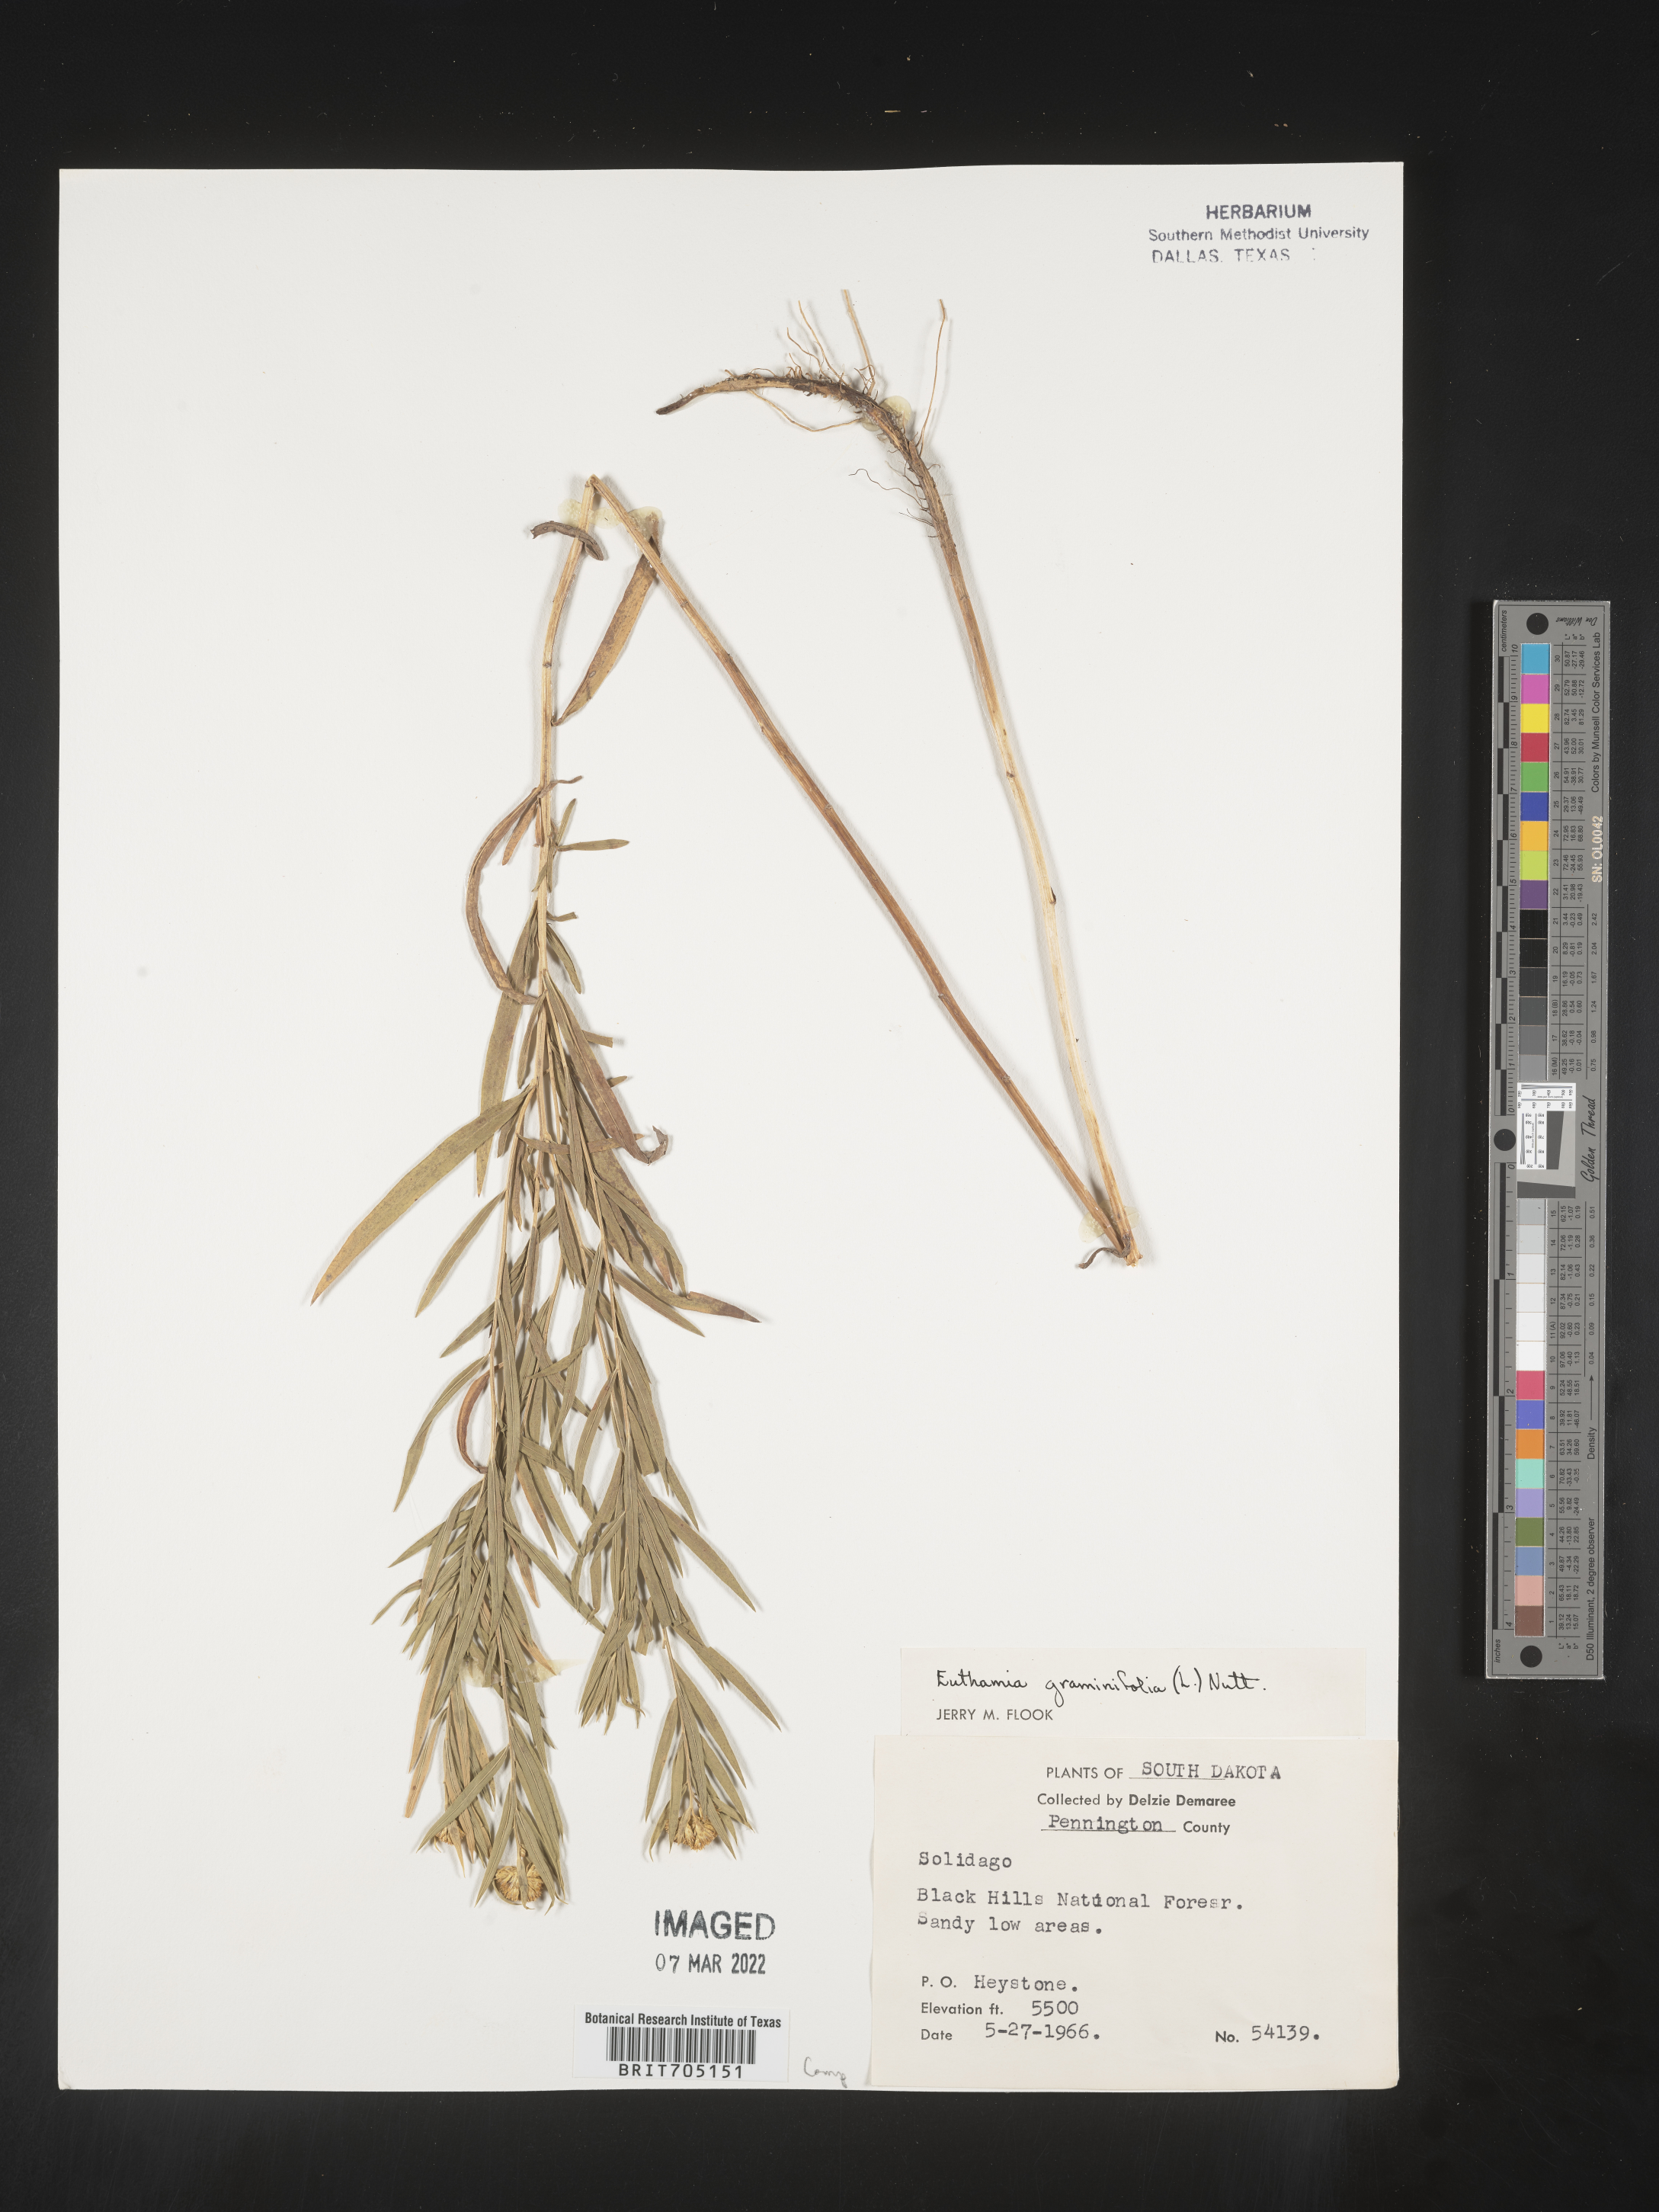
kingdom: Plantae
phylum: Tracheophyta
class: Magnoliopsida
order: Asterales
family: Asteraceae
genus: Euthamia
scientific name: Euthamia graminifolia
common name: Common goldentop
